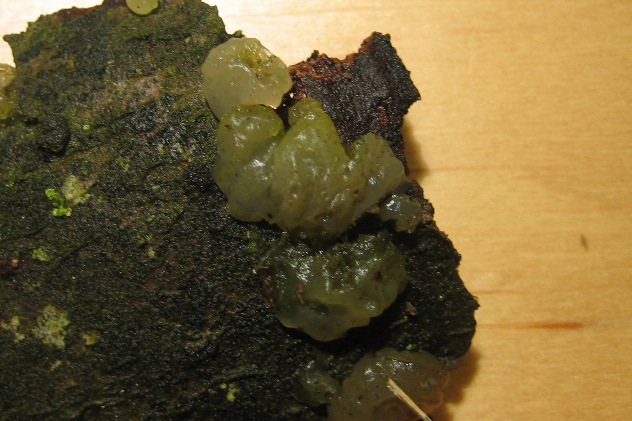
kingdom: Fungi
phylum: Basidiomycota
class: Agaricomycetes
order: Auriculariales
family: Hyaloriaceae
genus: Myxarium
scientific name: Myxarium nucleatum
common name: klar bævretop
